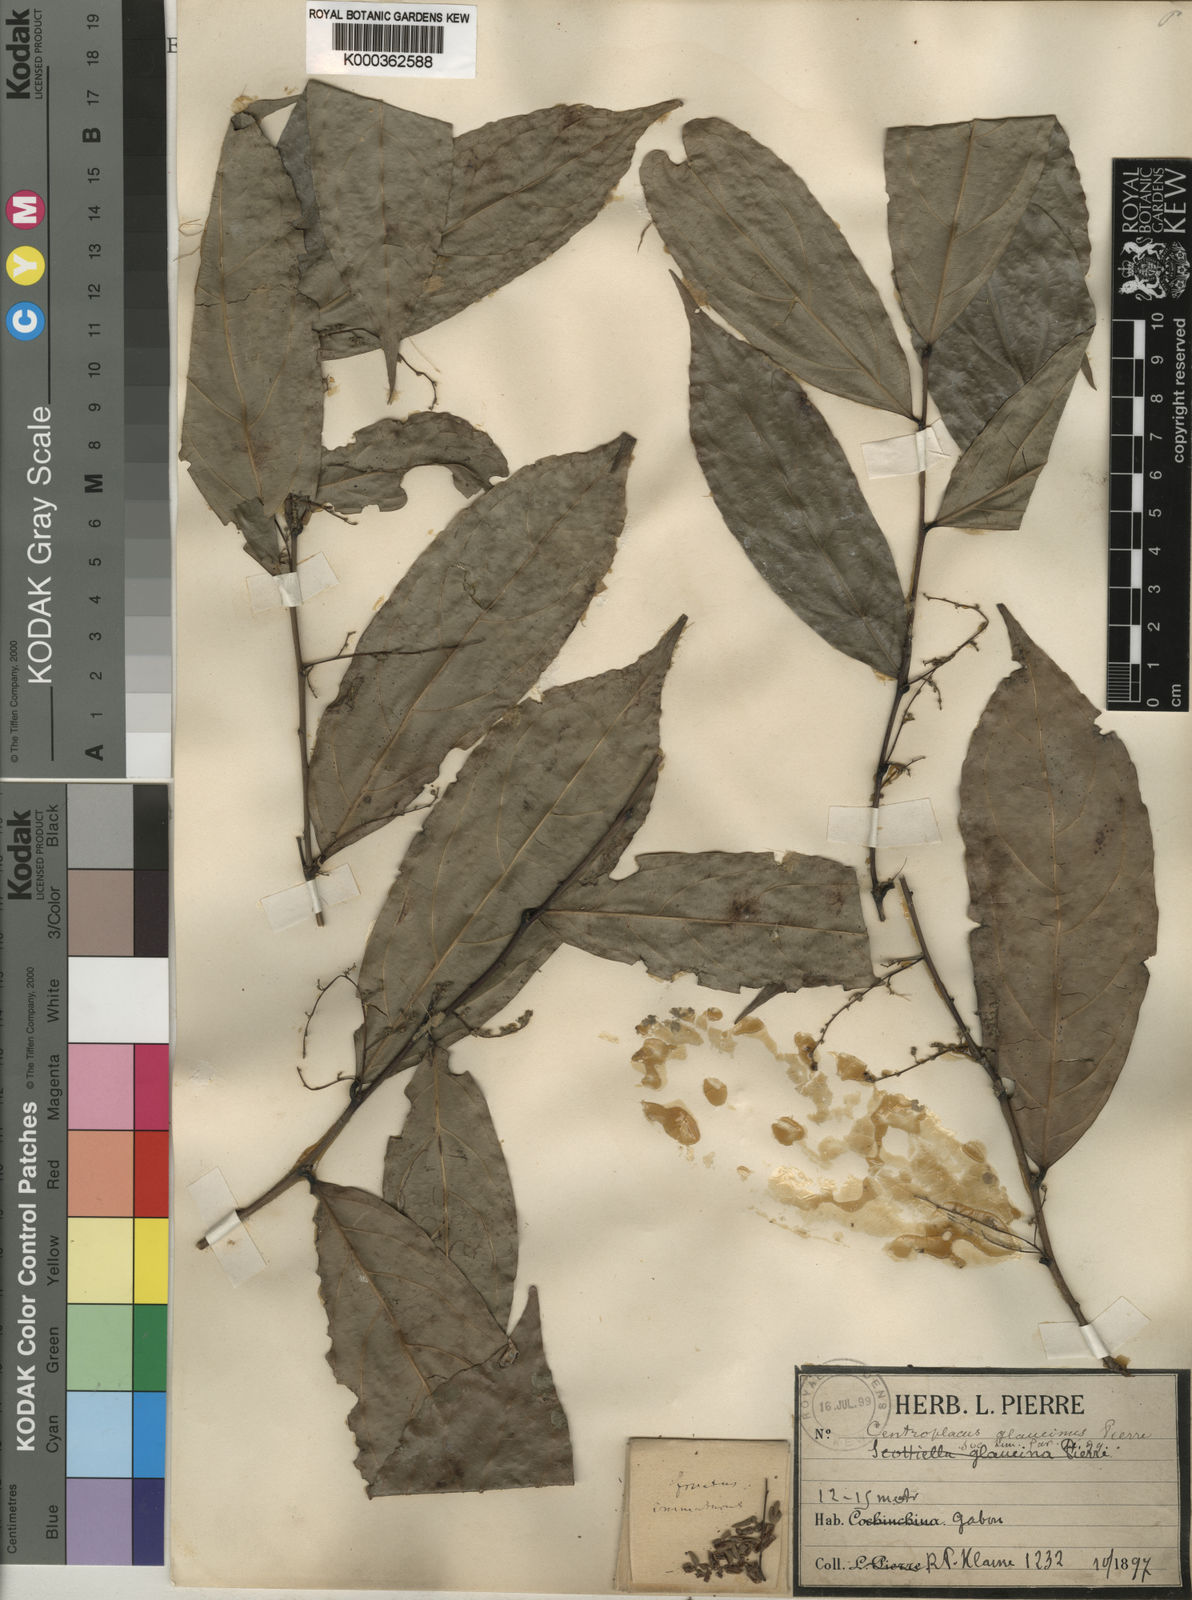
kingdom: Plantae
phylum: Tracheophyta
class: Magnoliopsida
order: Malpighiales
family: Pandaceae
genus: Panda
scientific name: Panda
